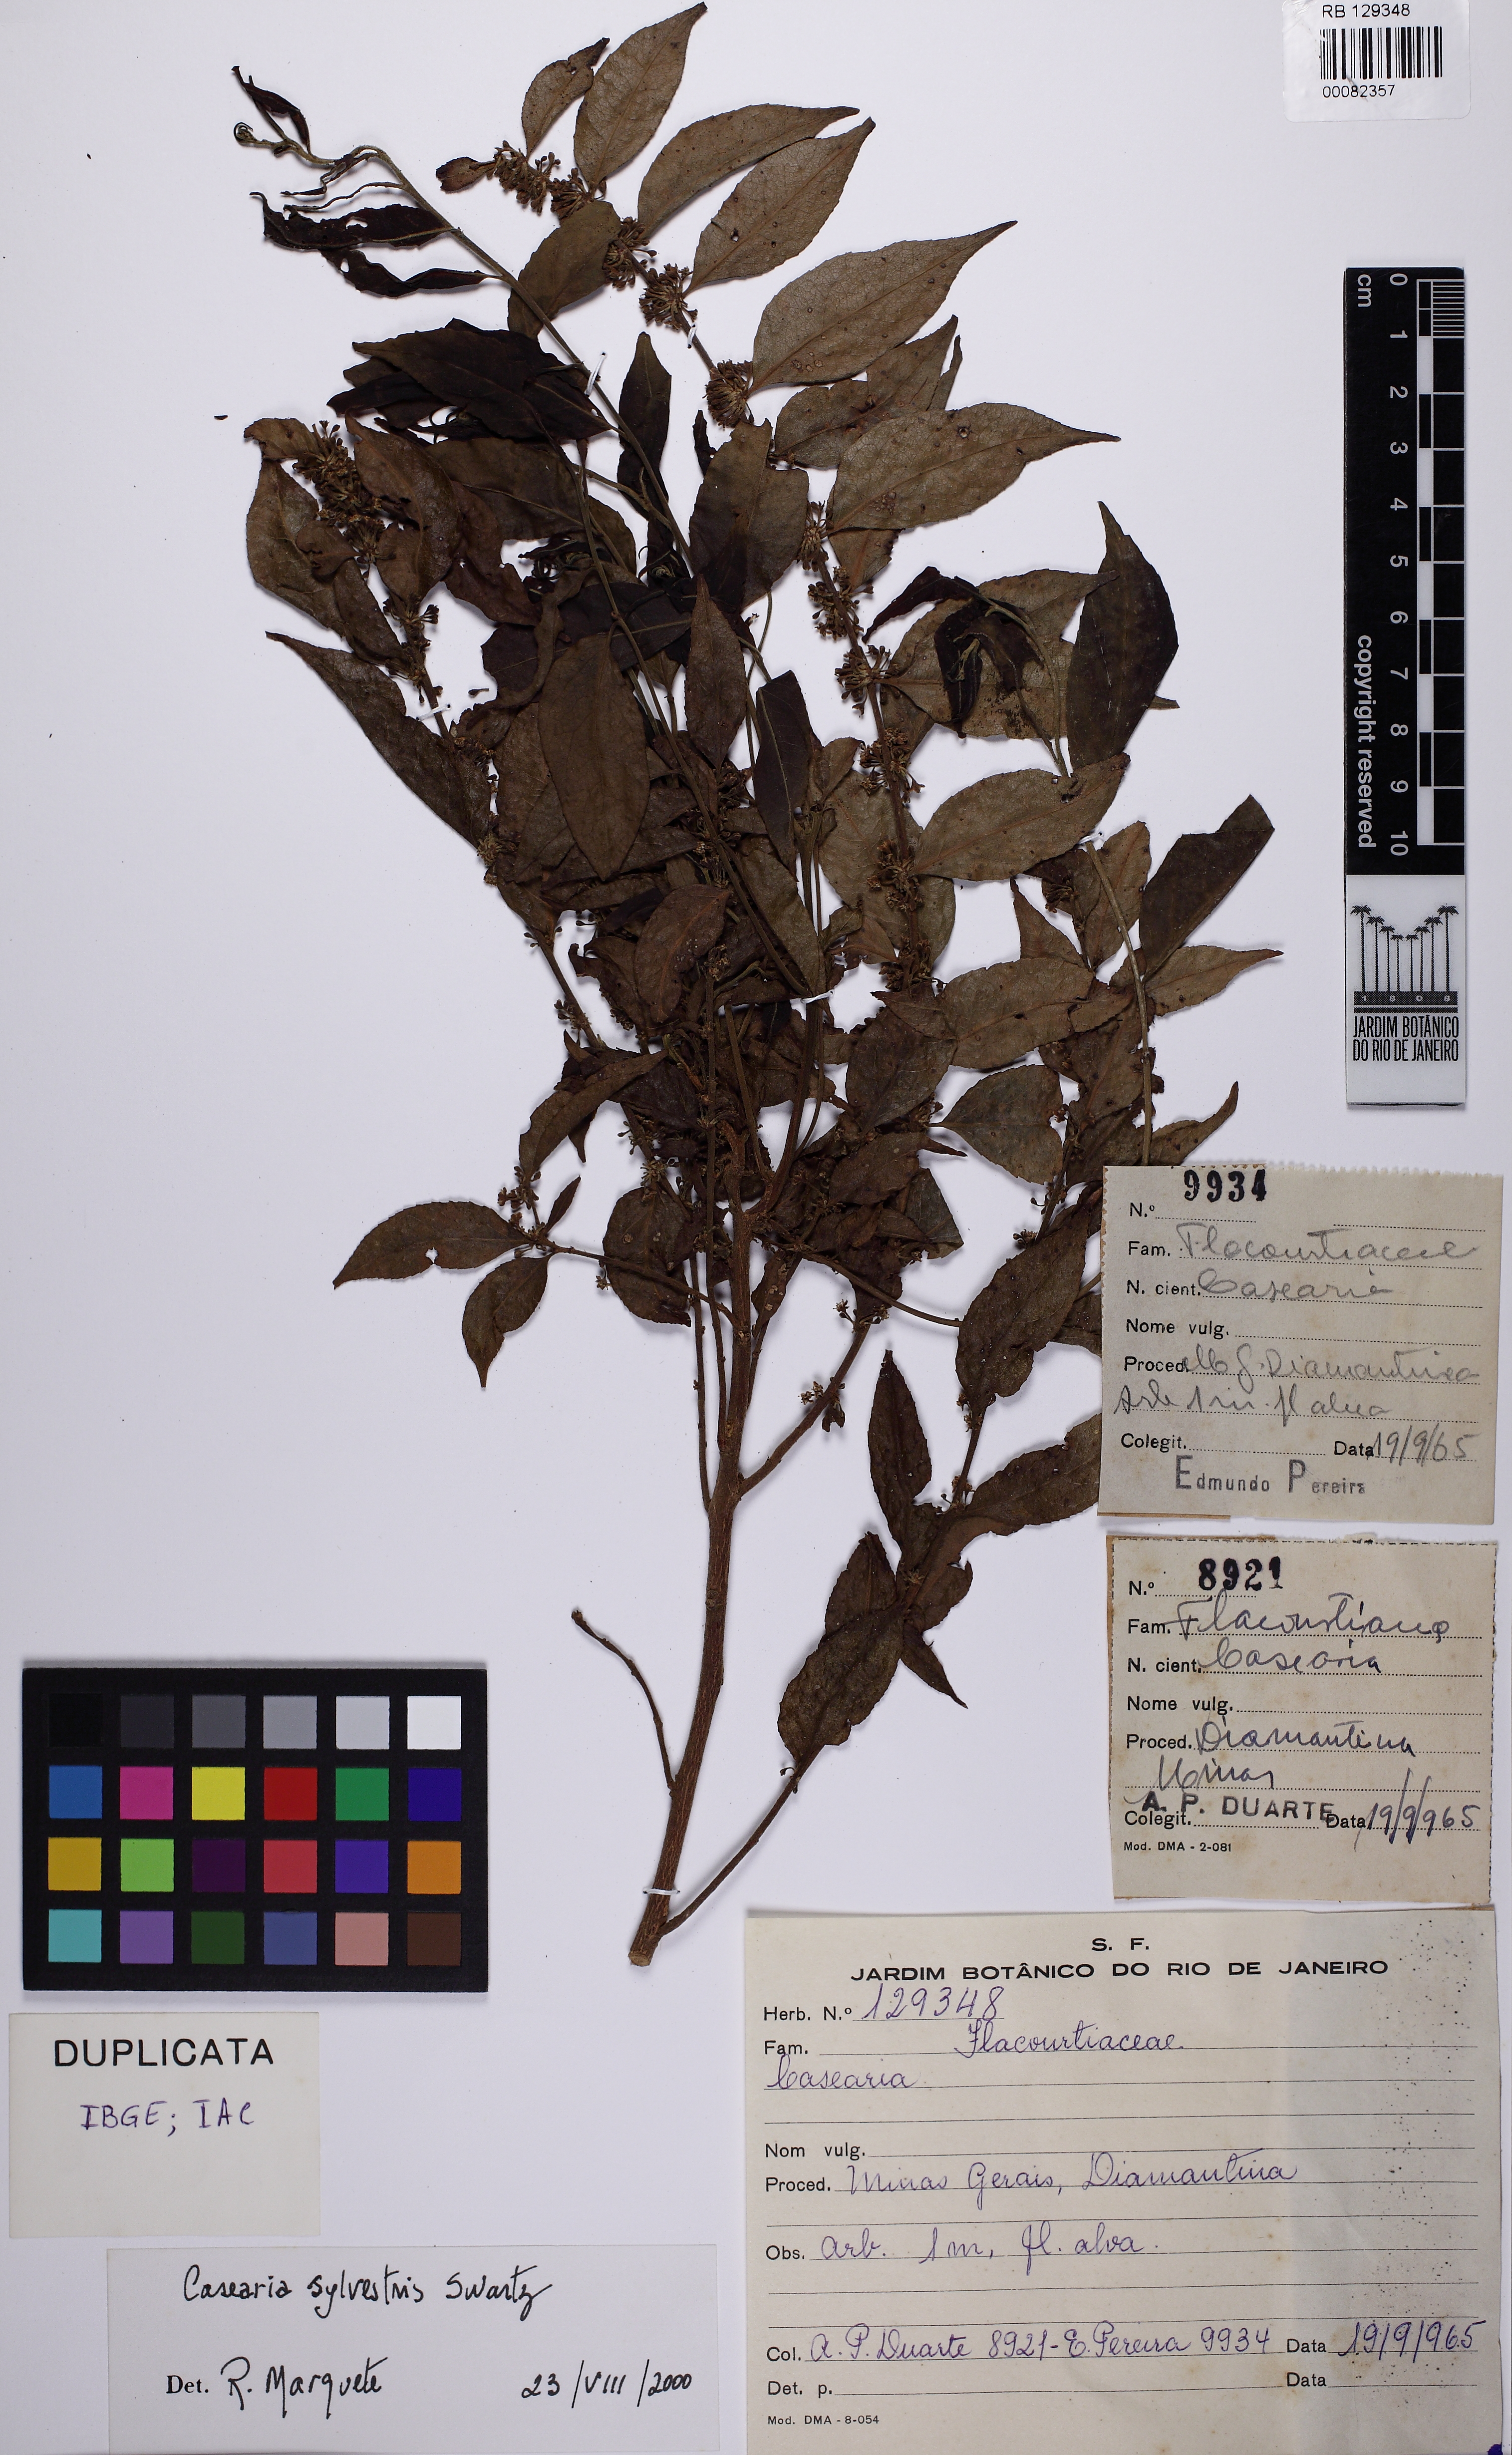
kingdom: Plantae
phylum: Tracheophyta
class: Magnoliopsida
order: Malpighiales
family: Salicaceae
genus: Casearia
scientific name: Casearia sylvestris
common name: Wild sage
